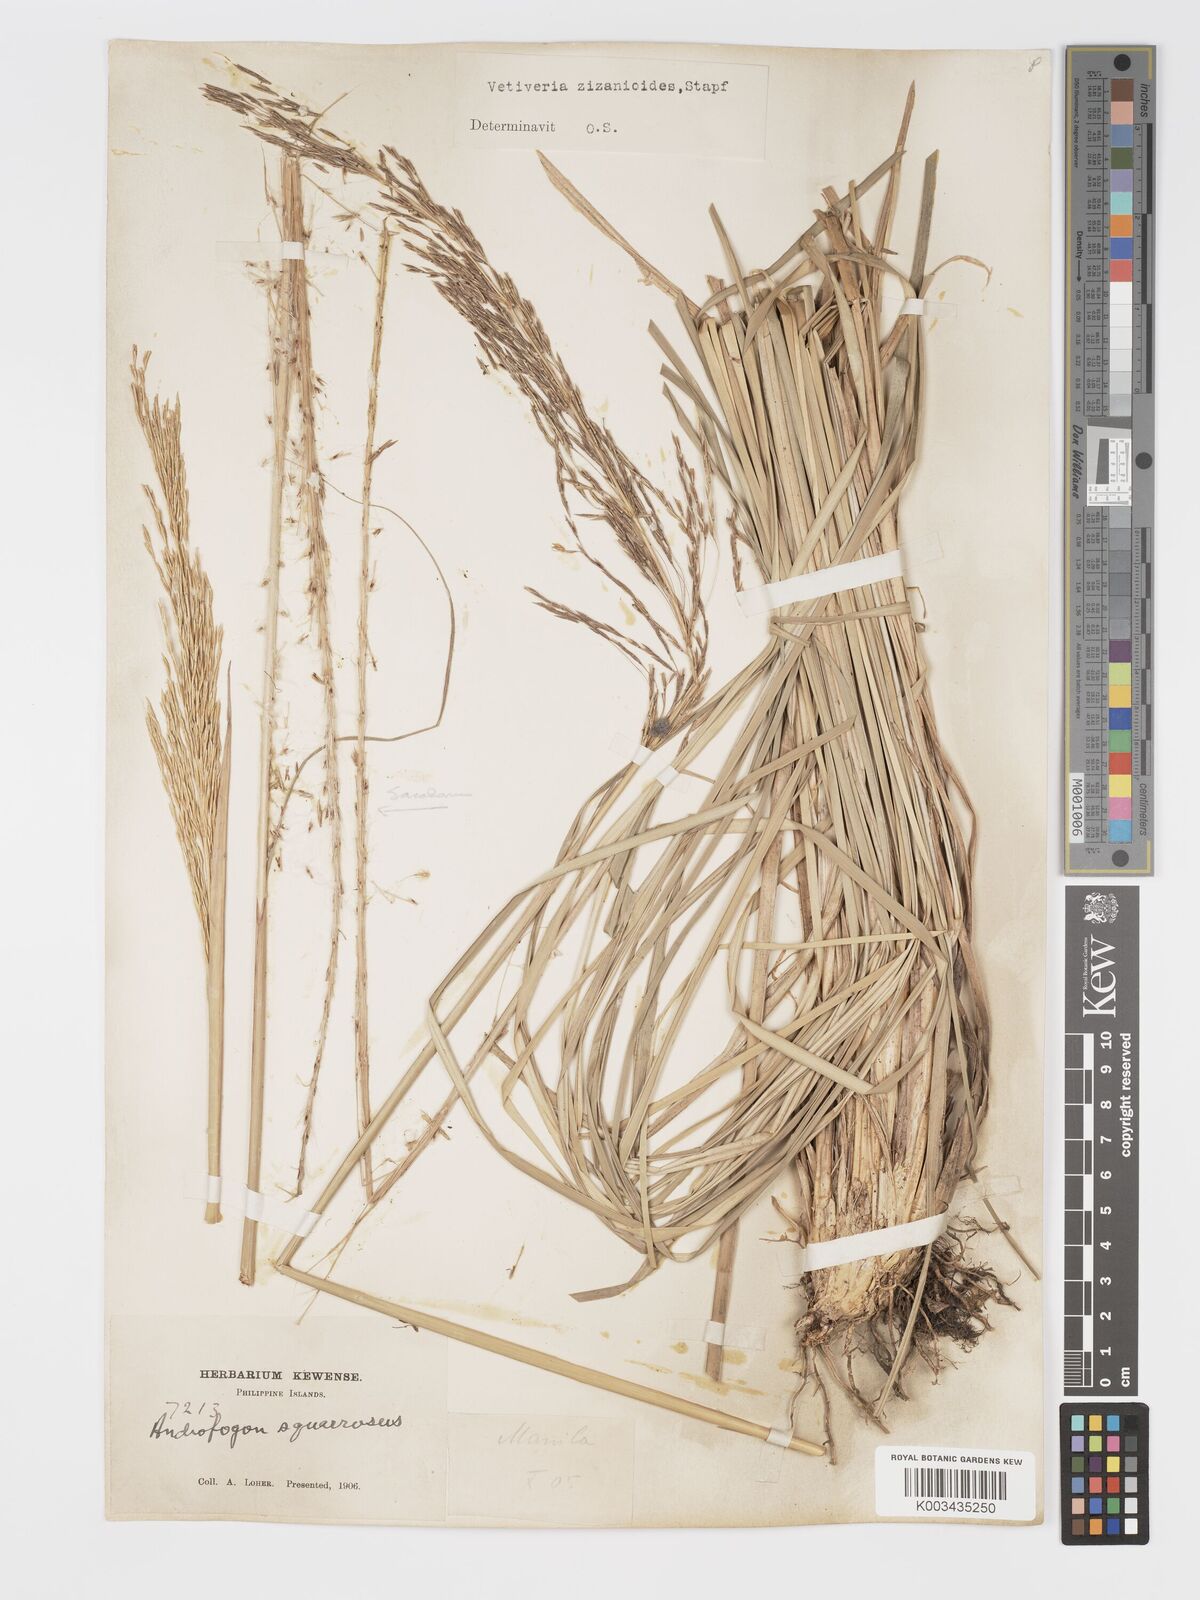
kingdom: Plantae
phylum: Tracheophyta
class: Liliopsida
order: Poales
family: Poaceae
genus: Chrysopogon
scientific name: Chrysopogon zizanioides
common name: False beardgrass
